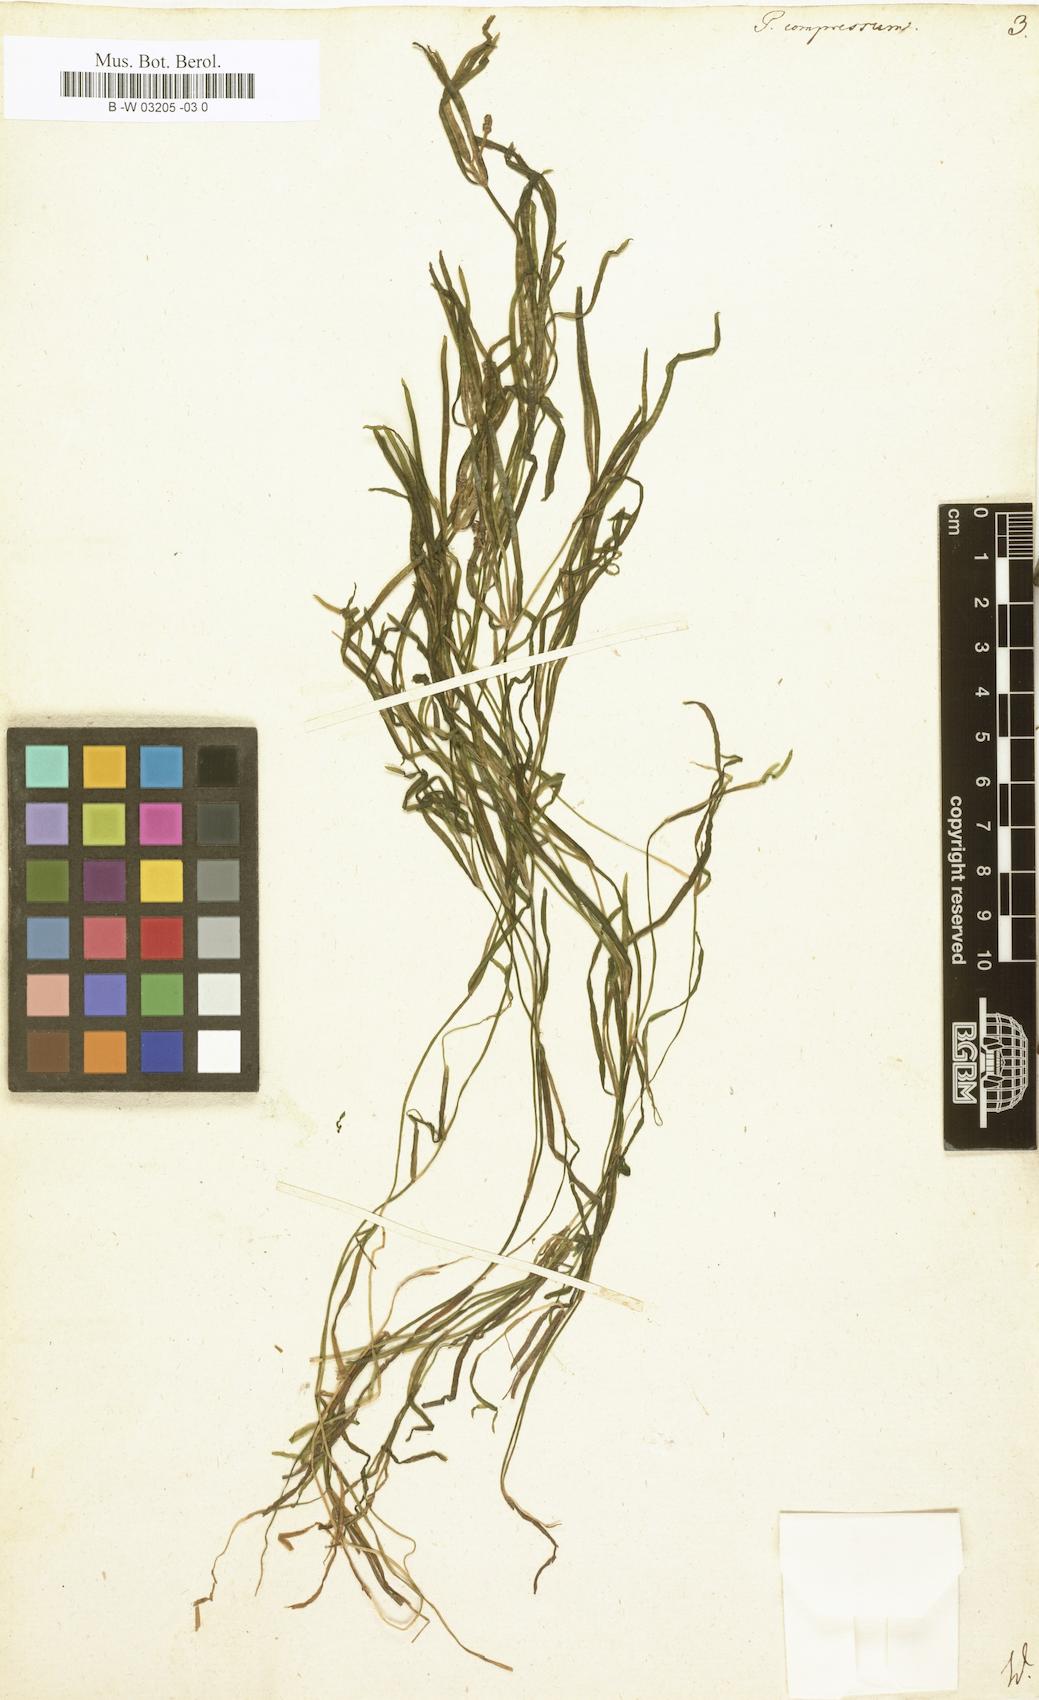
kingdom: Plantae
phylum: Tracheophyta
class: Liliopsida
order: Alismatales
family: Potamogetonaceae
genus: Potamogeton
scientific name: Potamogeton compressus
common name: Grass-wrack pondweed
